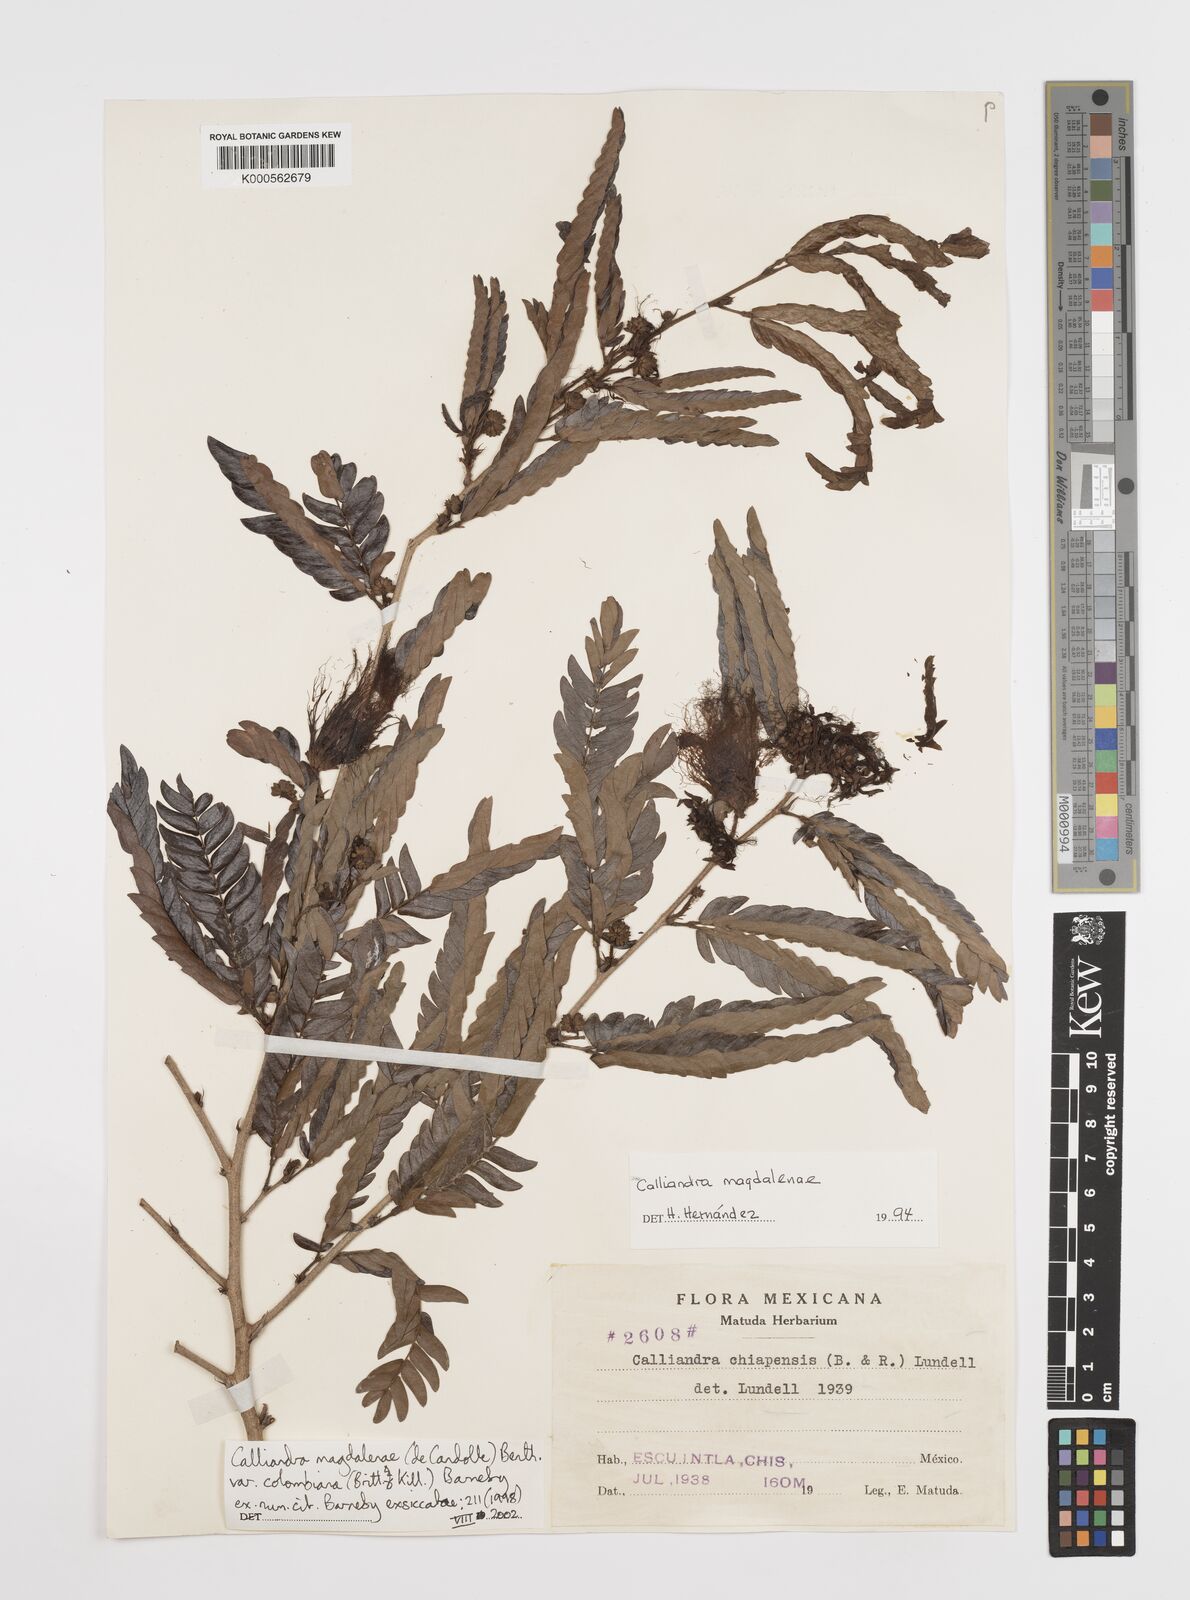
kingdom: Plantae
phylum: Tracheophyta
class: Magnoliopsida
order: Fabales
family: Fabaceae
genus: Calliandra
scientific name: Calliandra magdalenae
